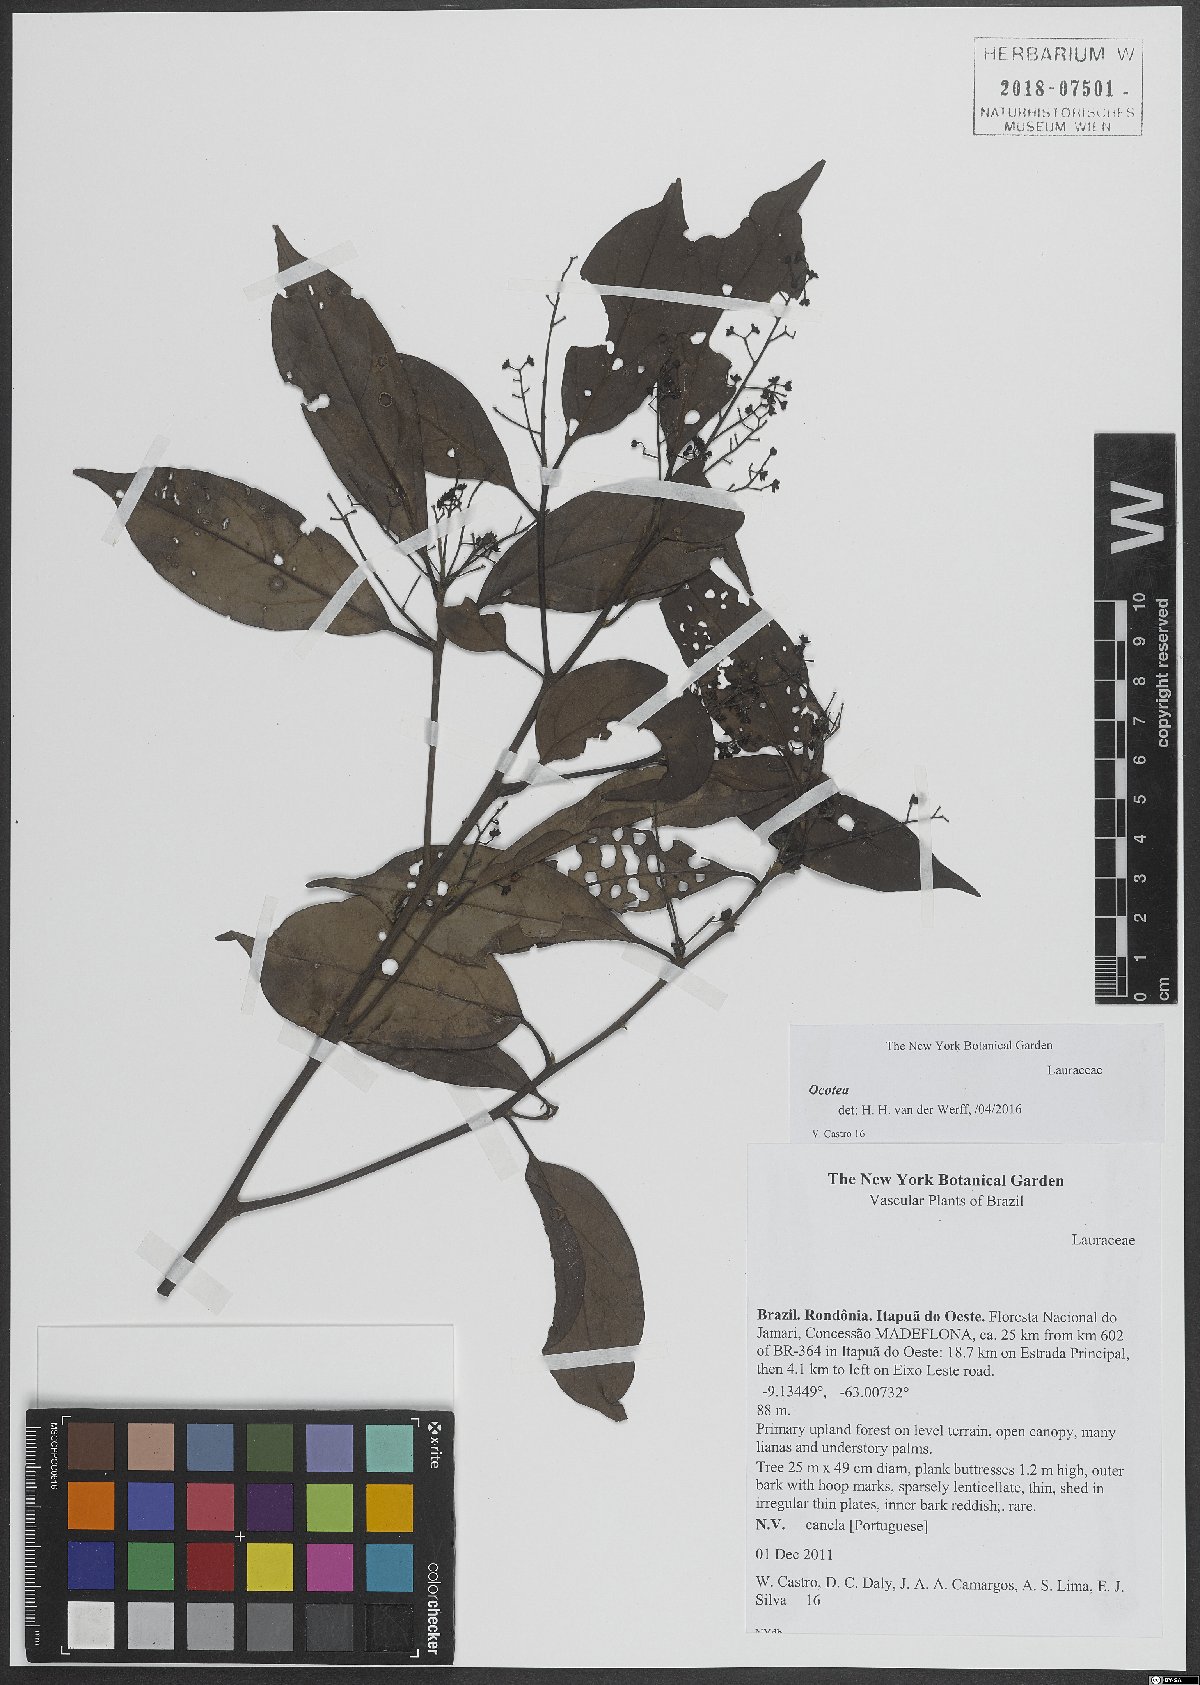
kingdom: Plantae
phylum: Tracheophyta
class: Magnoliopsida
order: Laurales
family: Lauraceae
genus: Ocotea
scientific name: Ocotea
